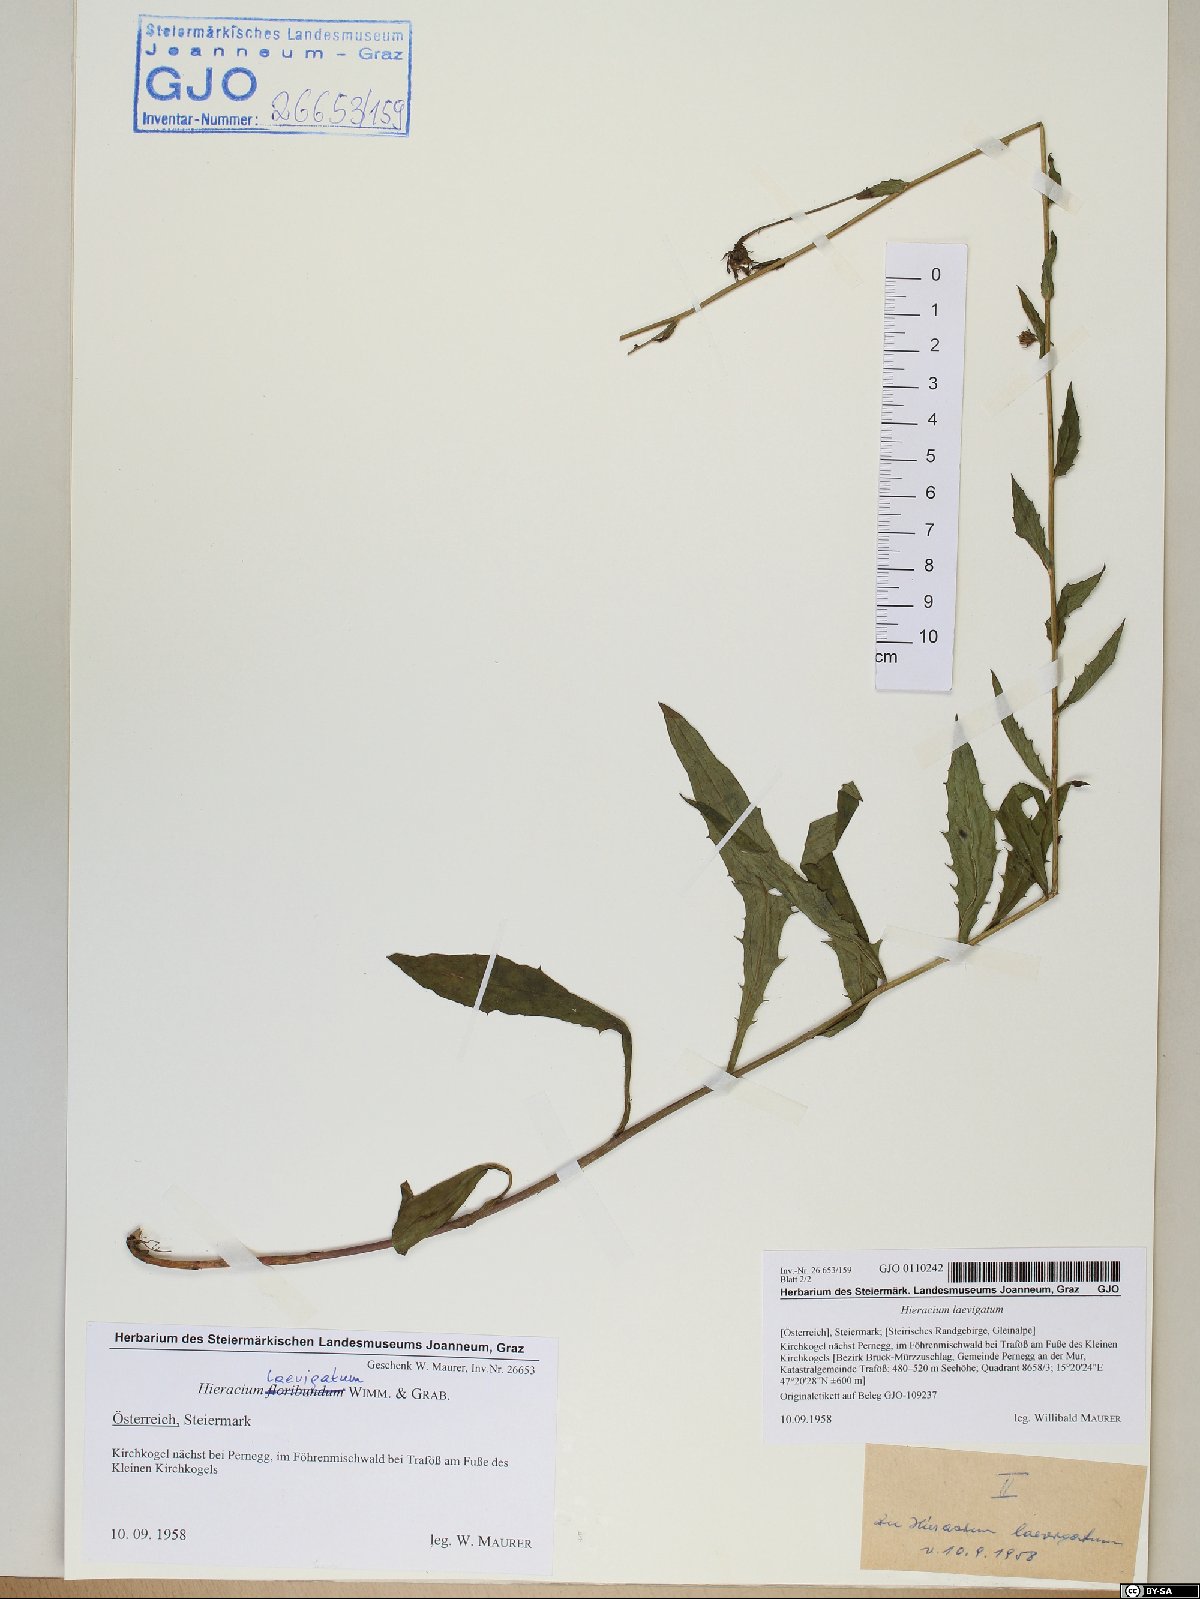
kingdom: Plantae
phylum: Tracheophyta
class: Magnoliopsida
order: Asterales
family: Asteraceae
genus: Hieracium
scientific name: Hieracium laevigatum
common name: Smooth hawkweed
